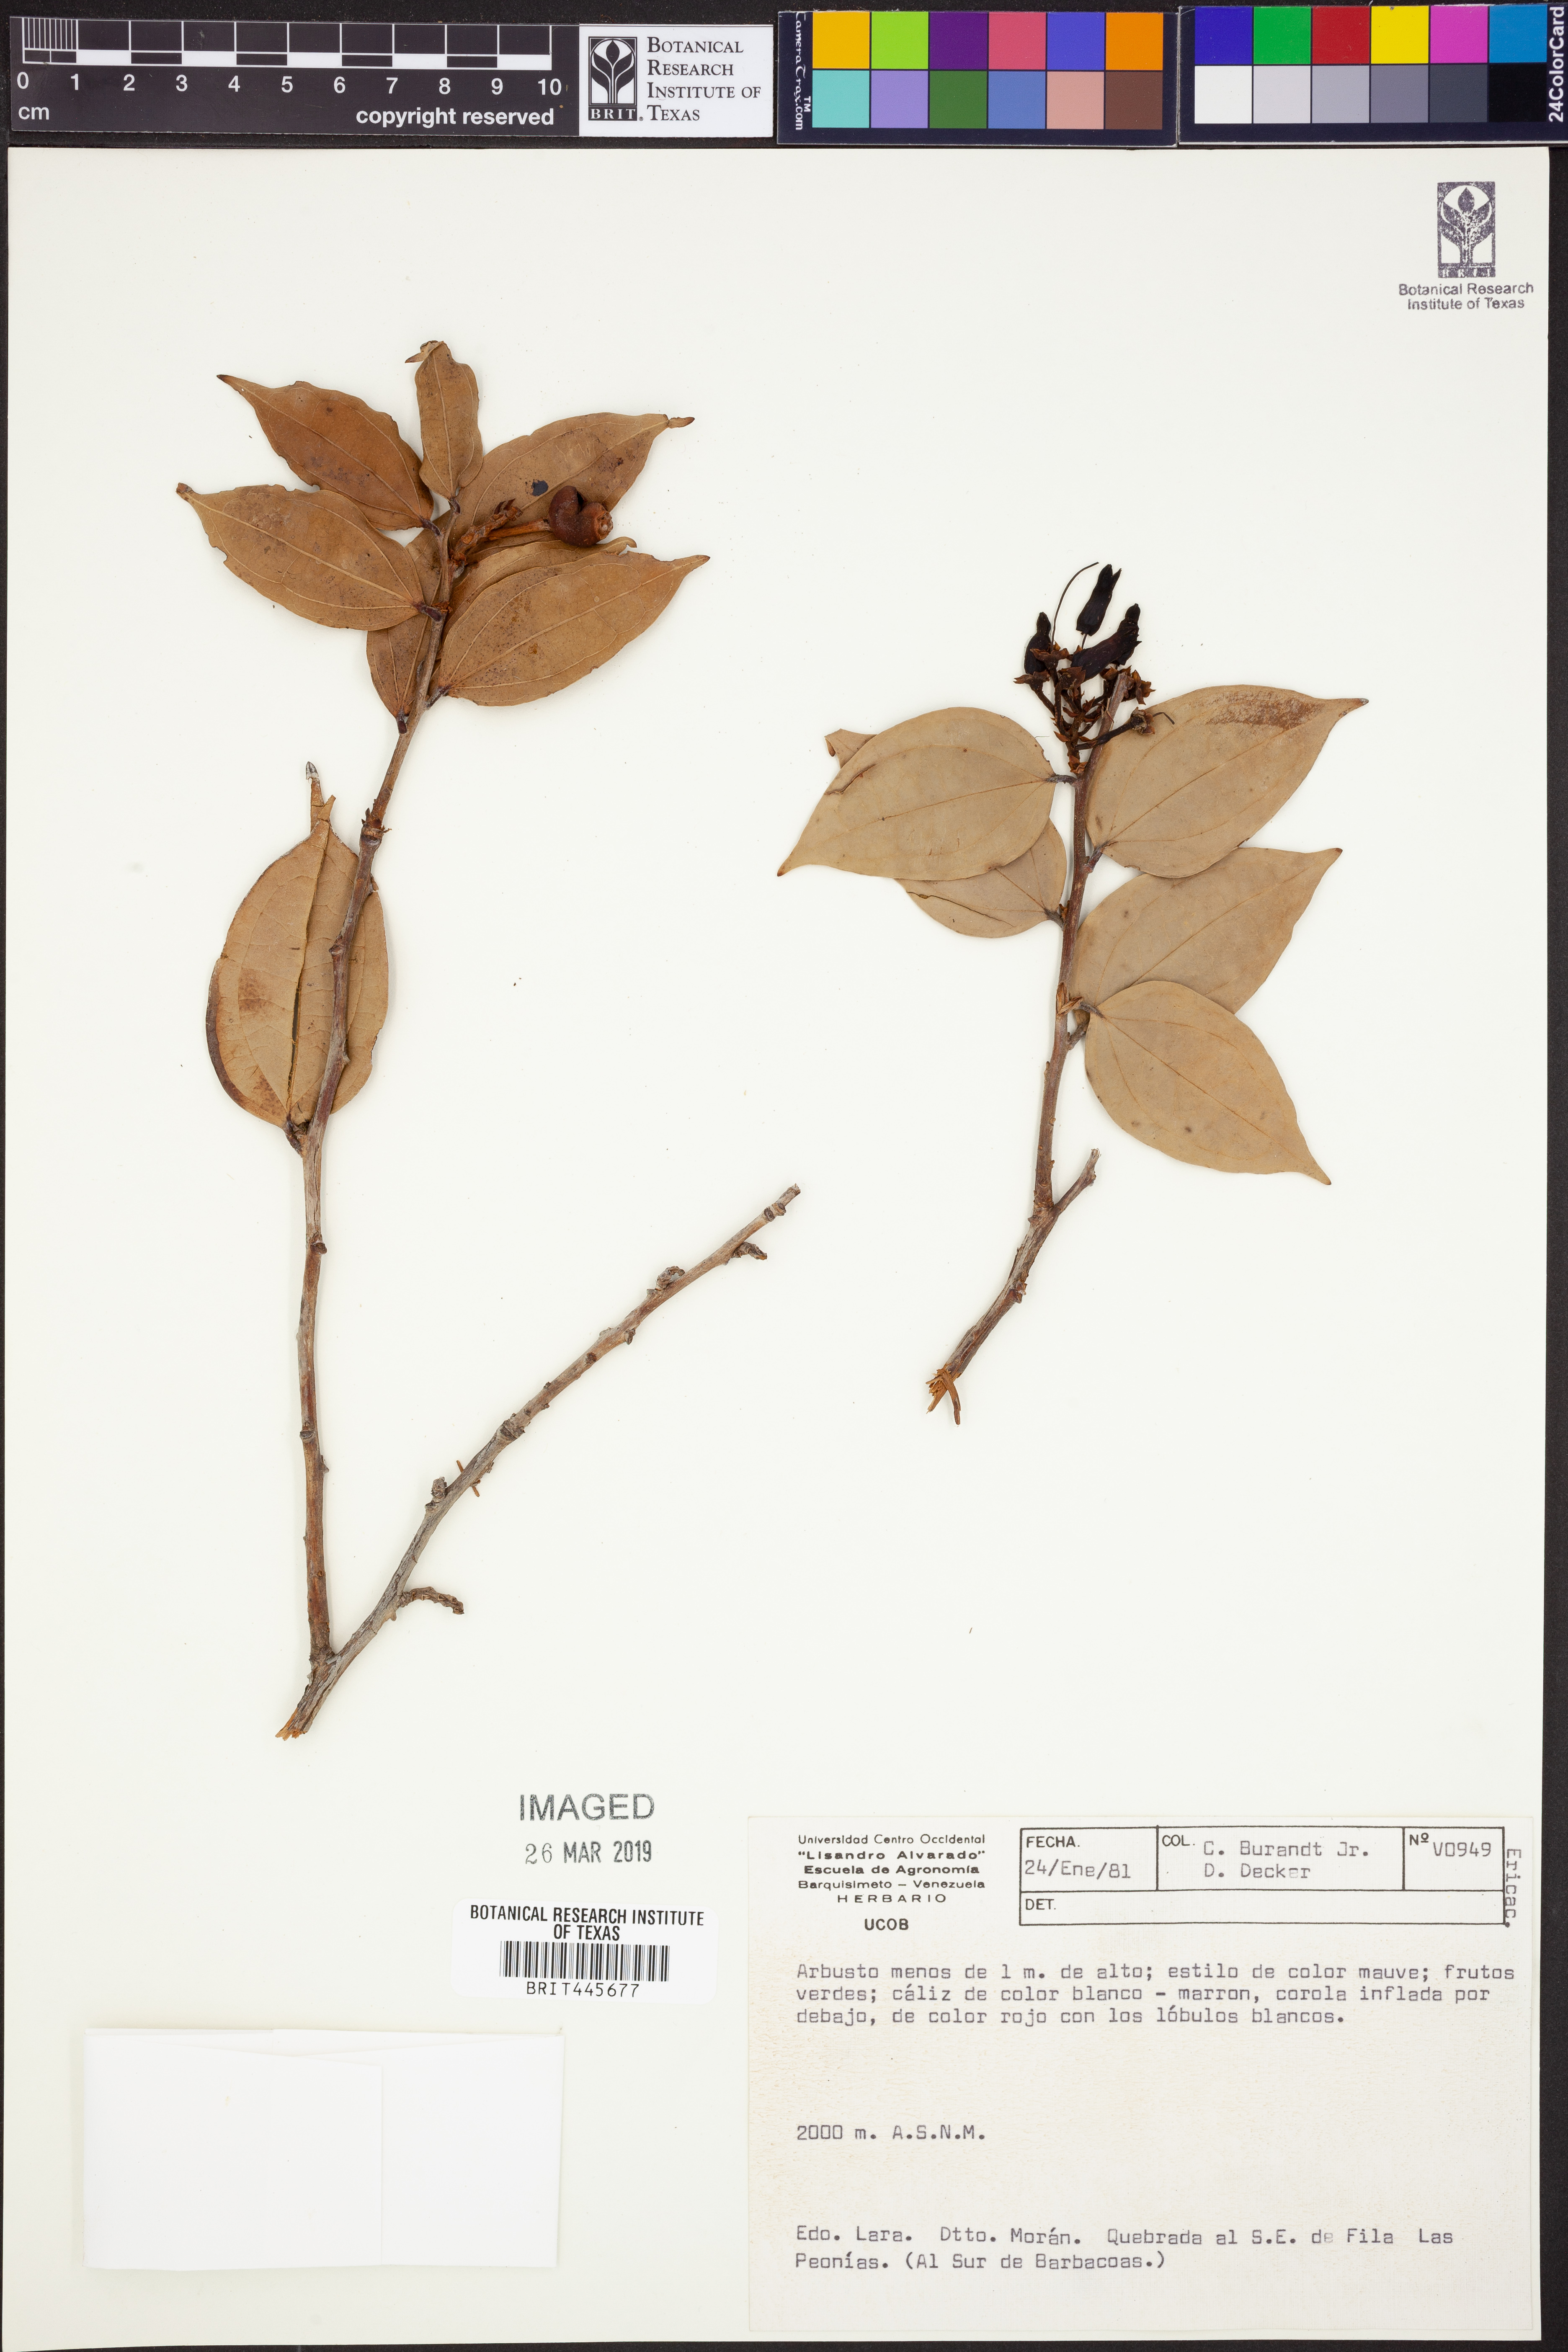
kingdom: Plantae
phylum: Tracheophyta
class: Magnoliopsida
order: Ericales
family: Ericaceae
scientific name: Ericaceae
